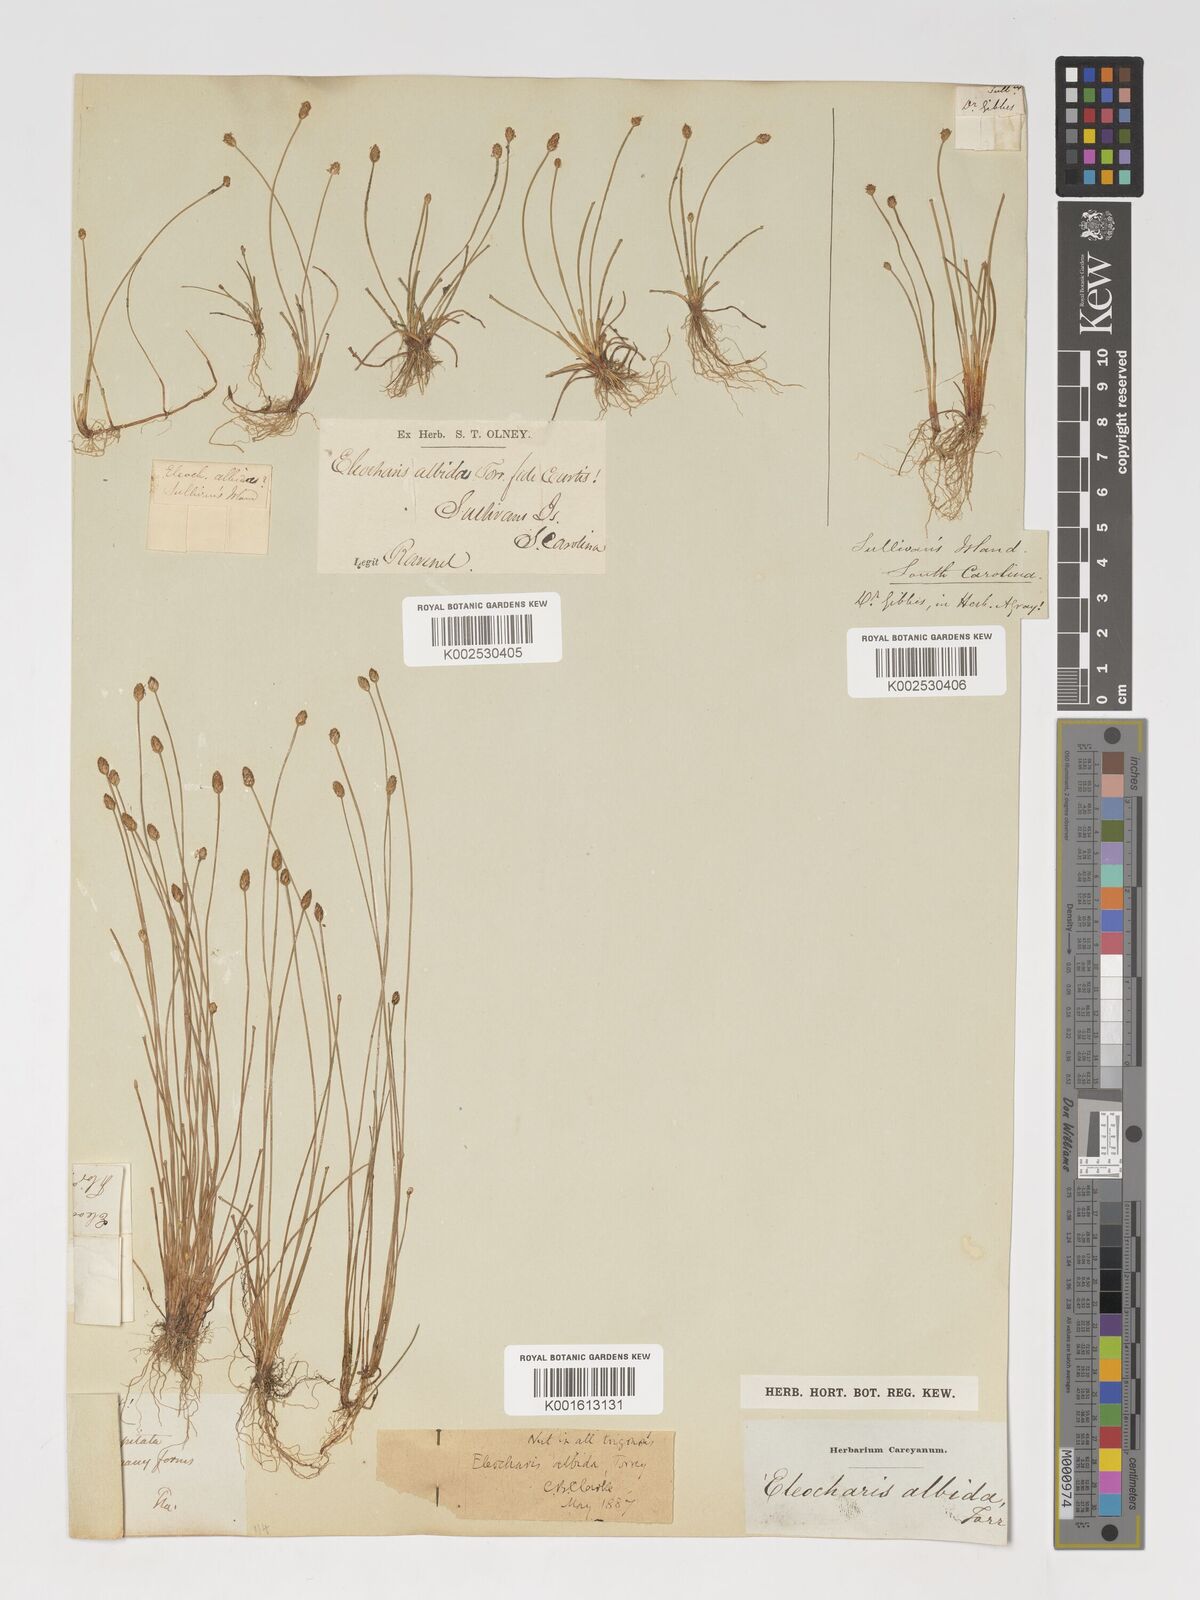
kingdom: Plantae
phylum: Tracheophyta
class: Liliopsida
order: Poales
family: Cyperaceae
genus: Eleocharis
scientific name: Eleocharis albida
